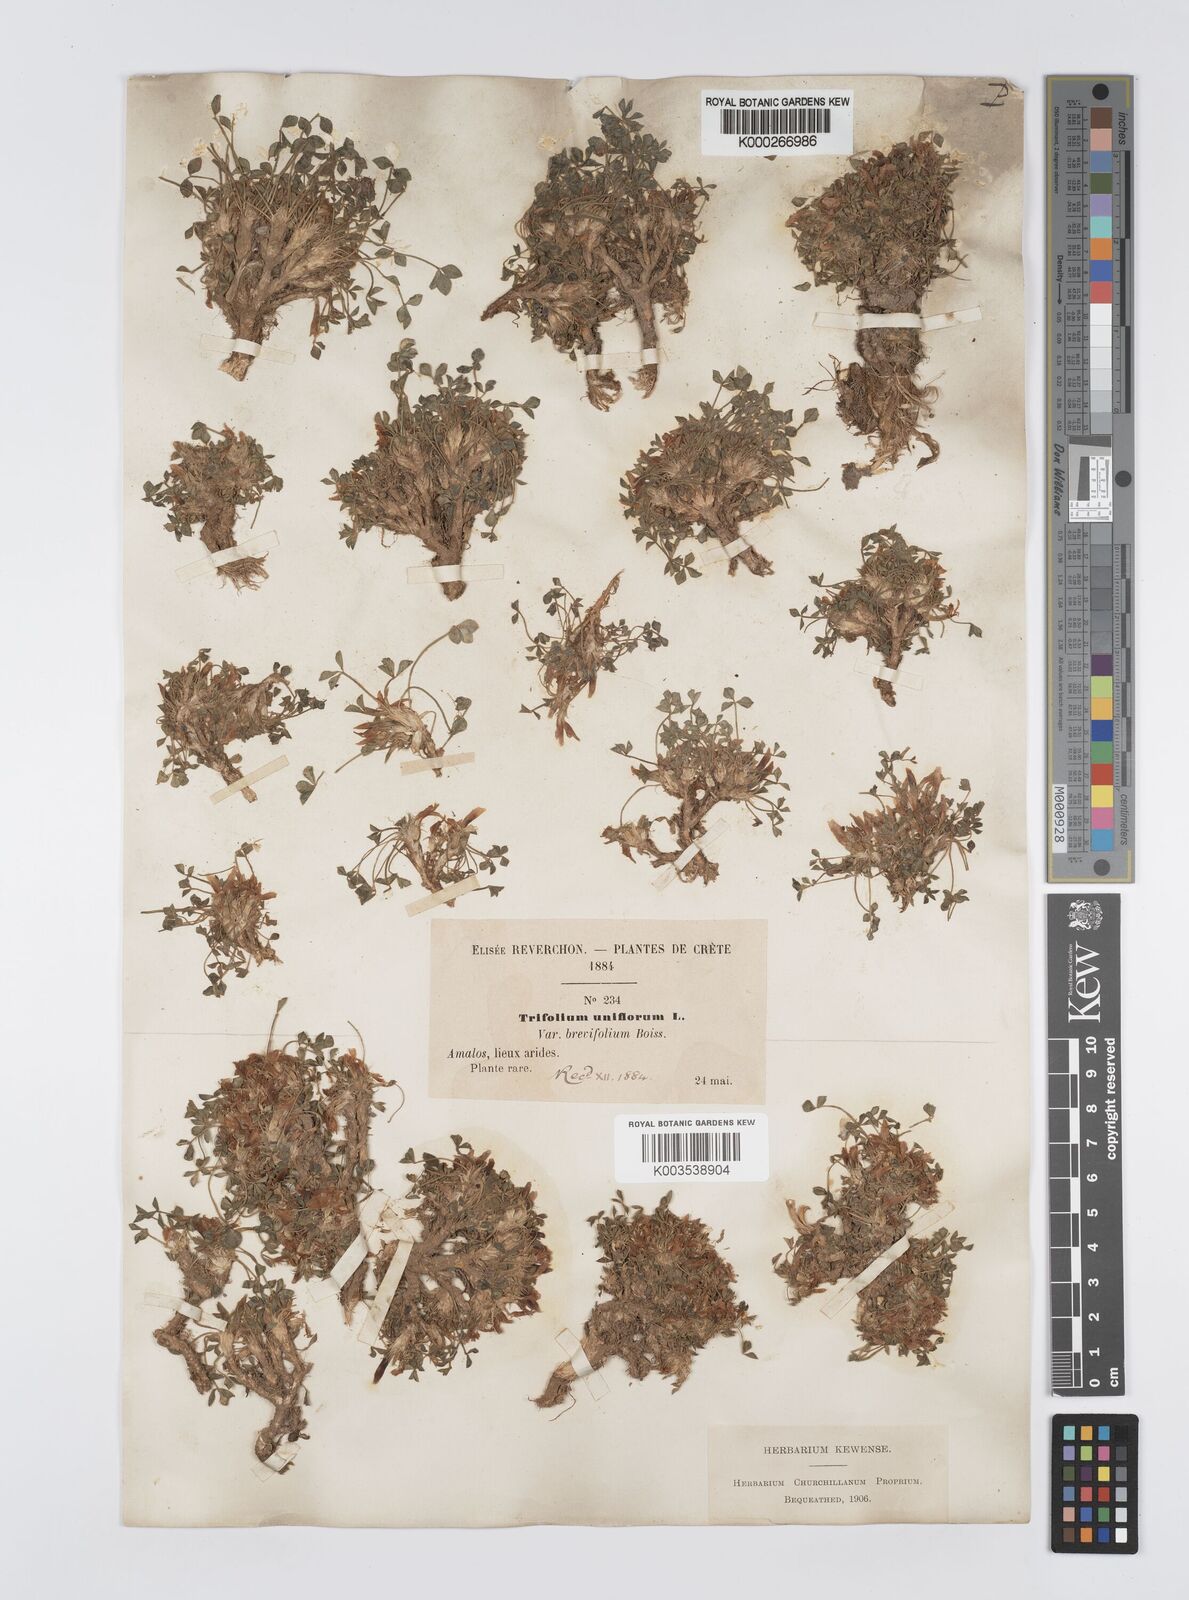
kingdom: Plantae
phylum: Tracheophyta
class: Magnoliopsida
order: Fabales
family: Fabaceae
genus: Trifolium
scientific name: Trifolium
